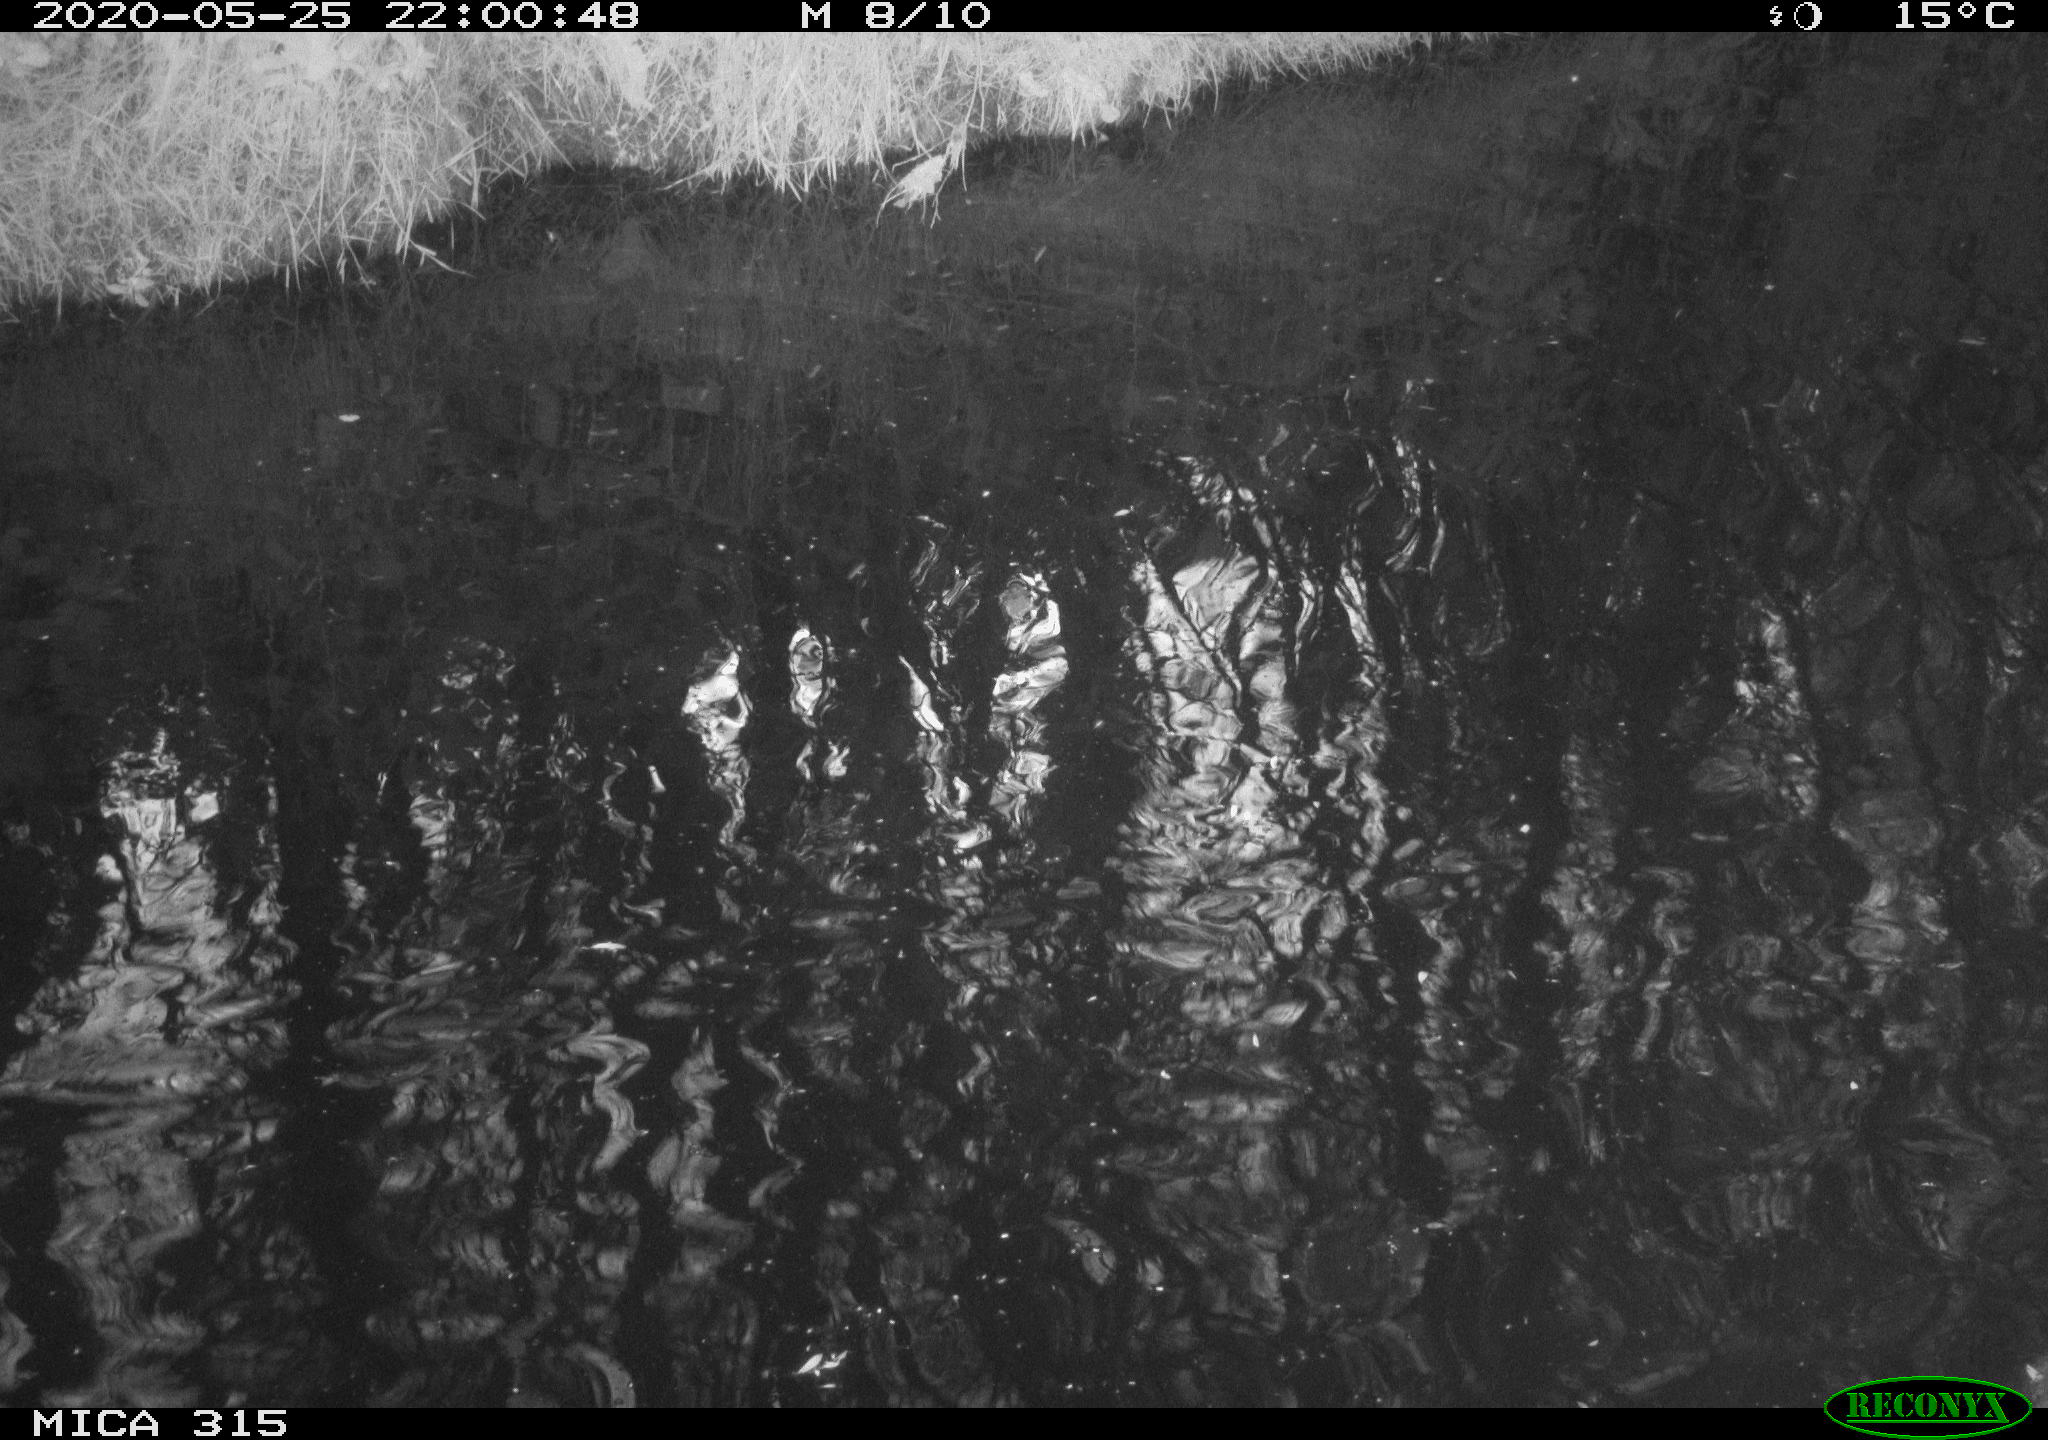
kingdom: Animalia
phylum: Chordata
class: Aves
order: Anseriformes
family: Anatidae
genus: Anas
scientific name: Anas platyrhynchos
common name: Mallard
